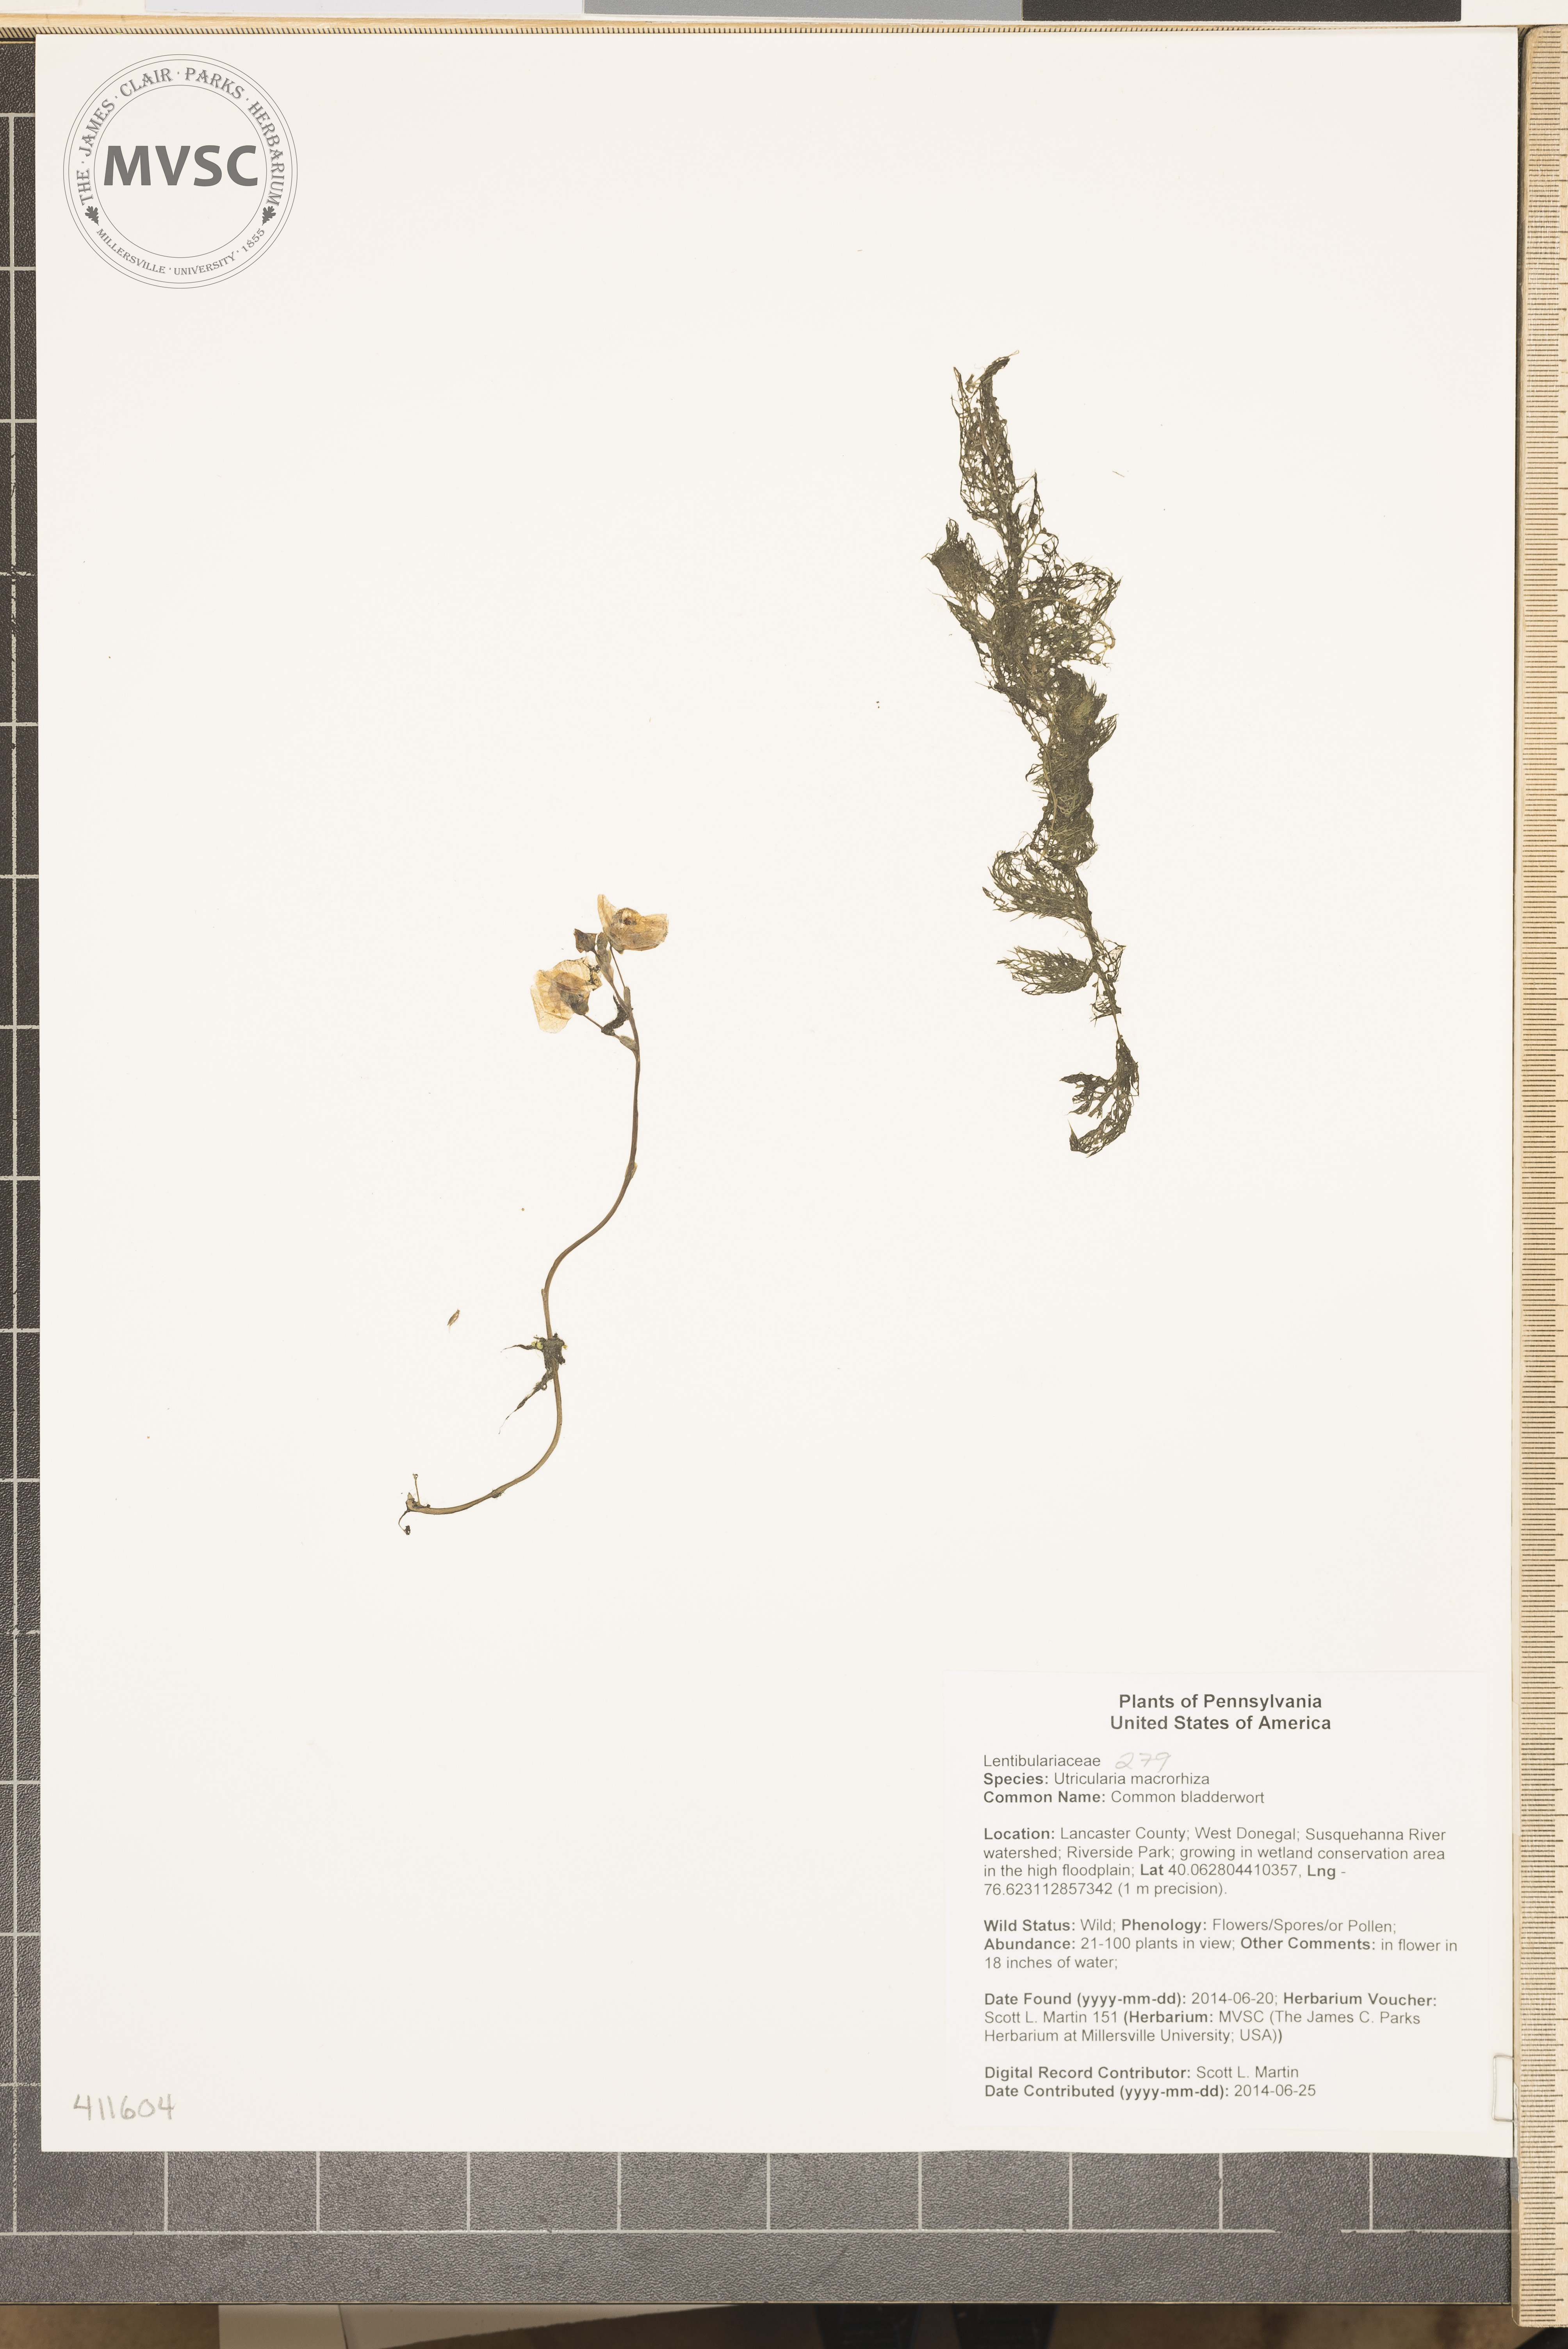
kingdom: Plantae
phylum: Tracheophyta
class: Magnoliopsida
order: Lamiales
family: Lentibulariaceae
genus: Utricularia
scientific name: Utricularia macrorhiza
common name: Common bladderwort
